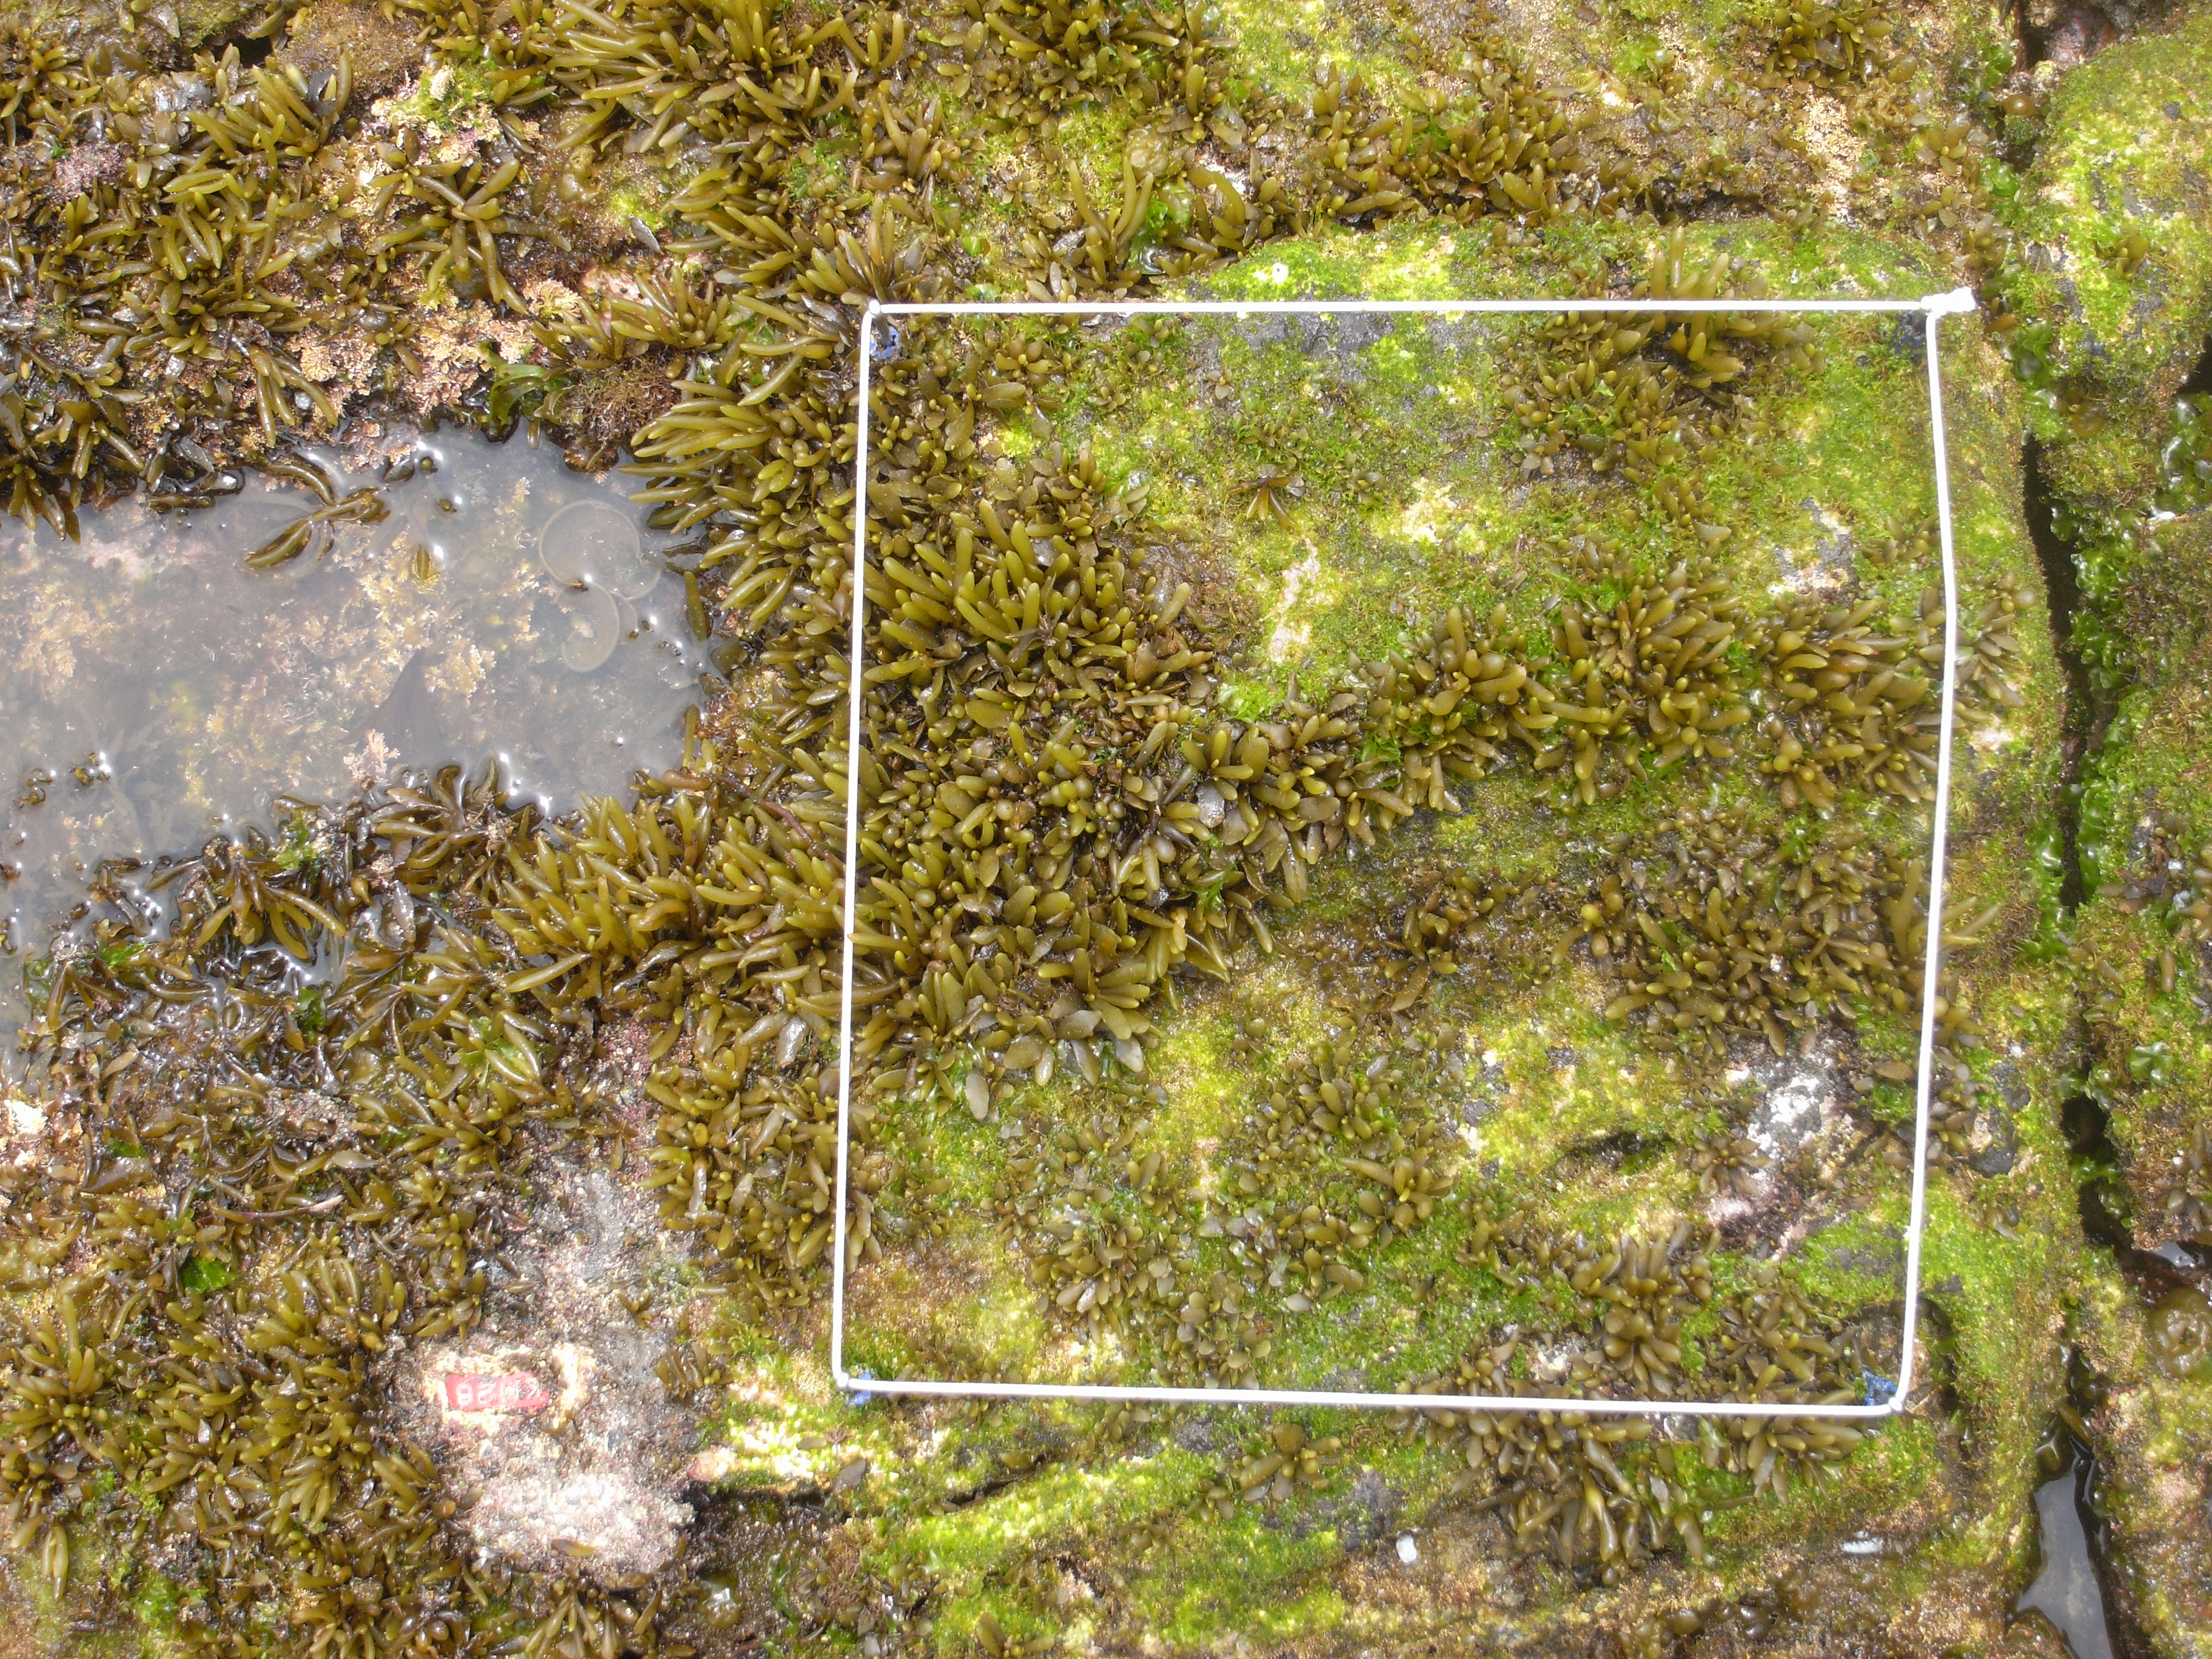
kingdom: Chromista
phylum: Ochrophyta
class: Phaeophyceae
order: Fucales
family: Sargassaceae
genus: Sargassum
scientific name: Sargassum fusiforme
